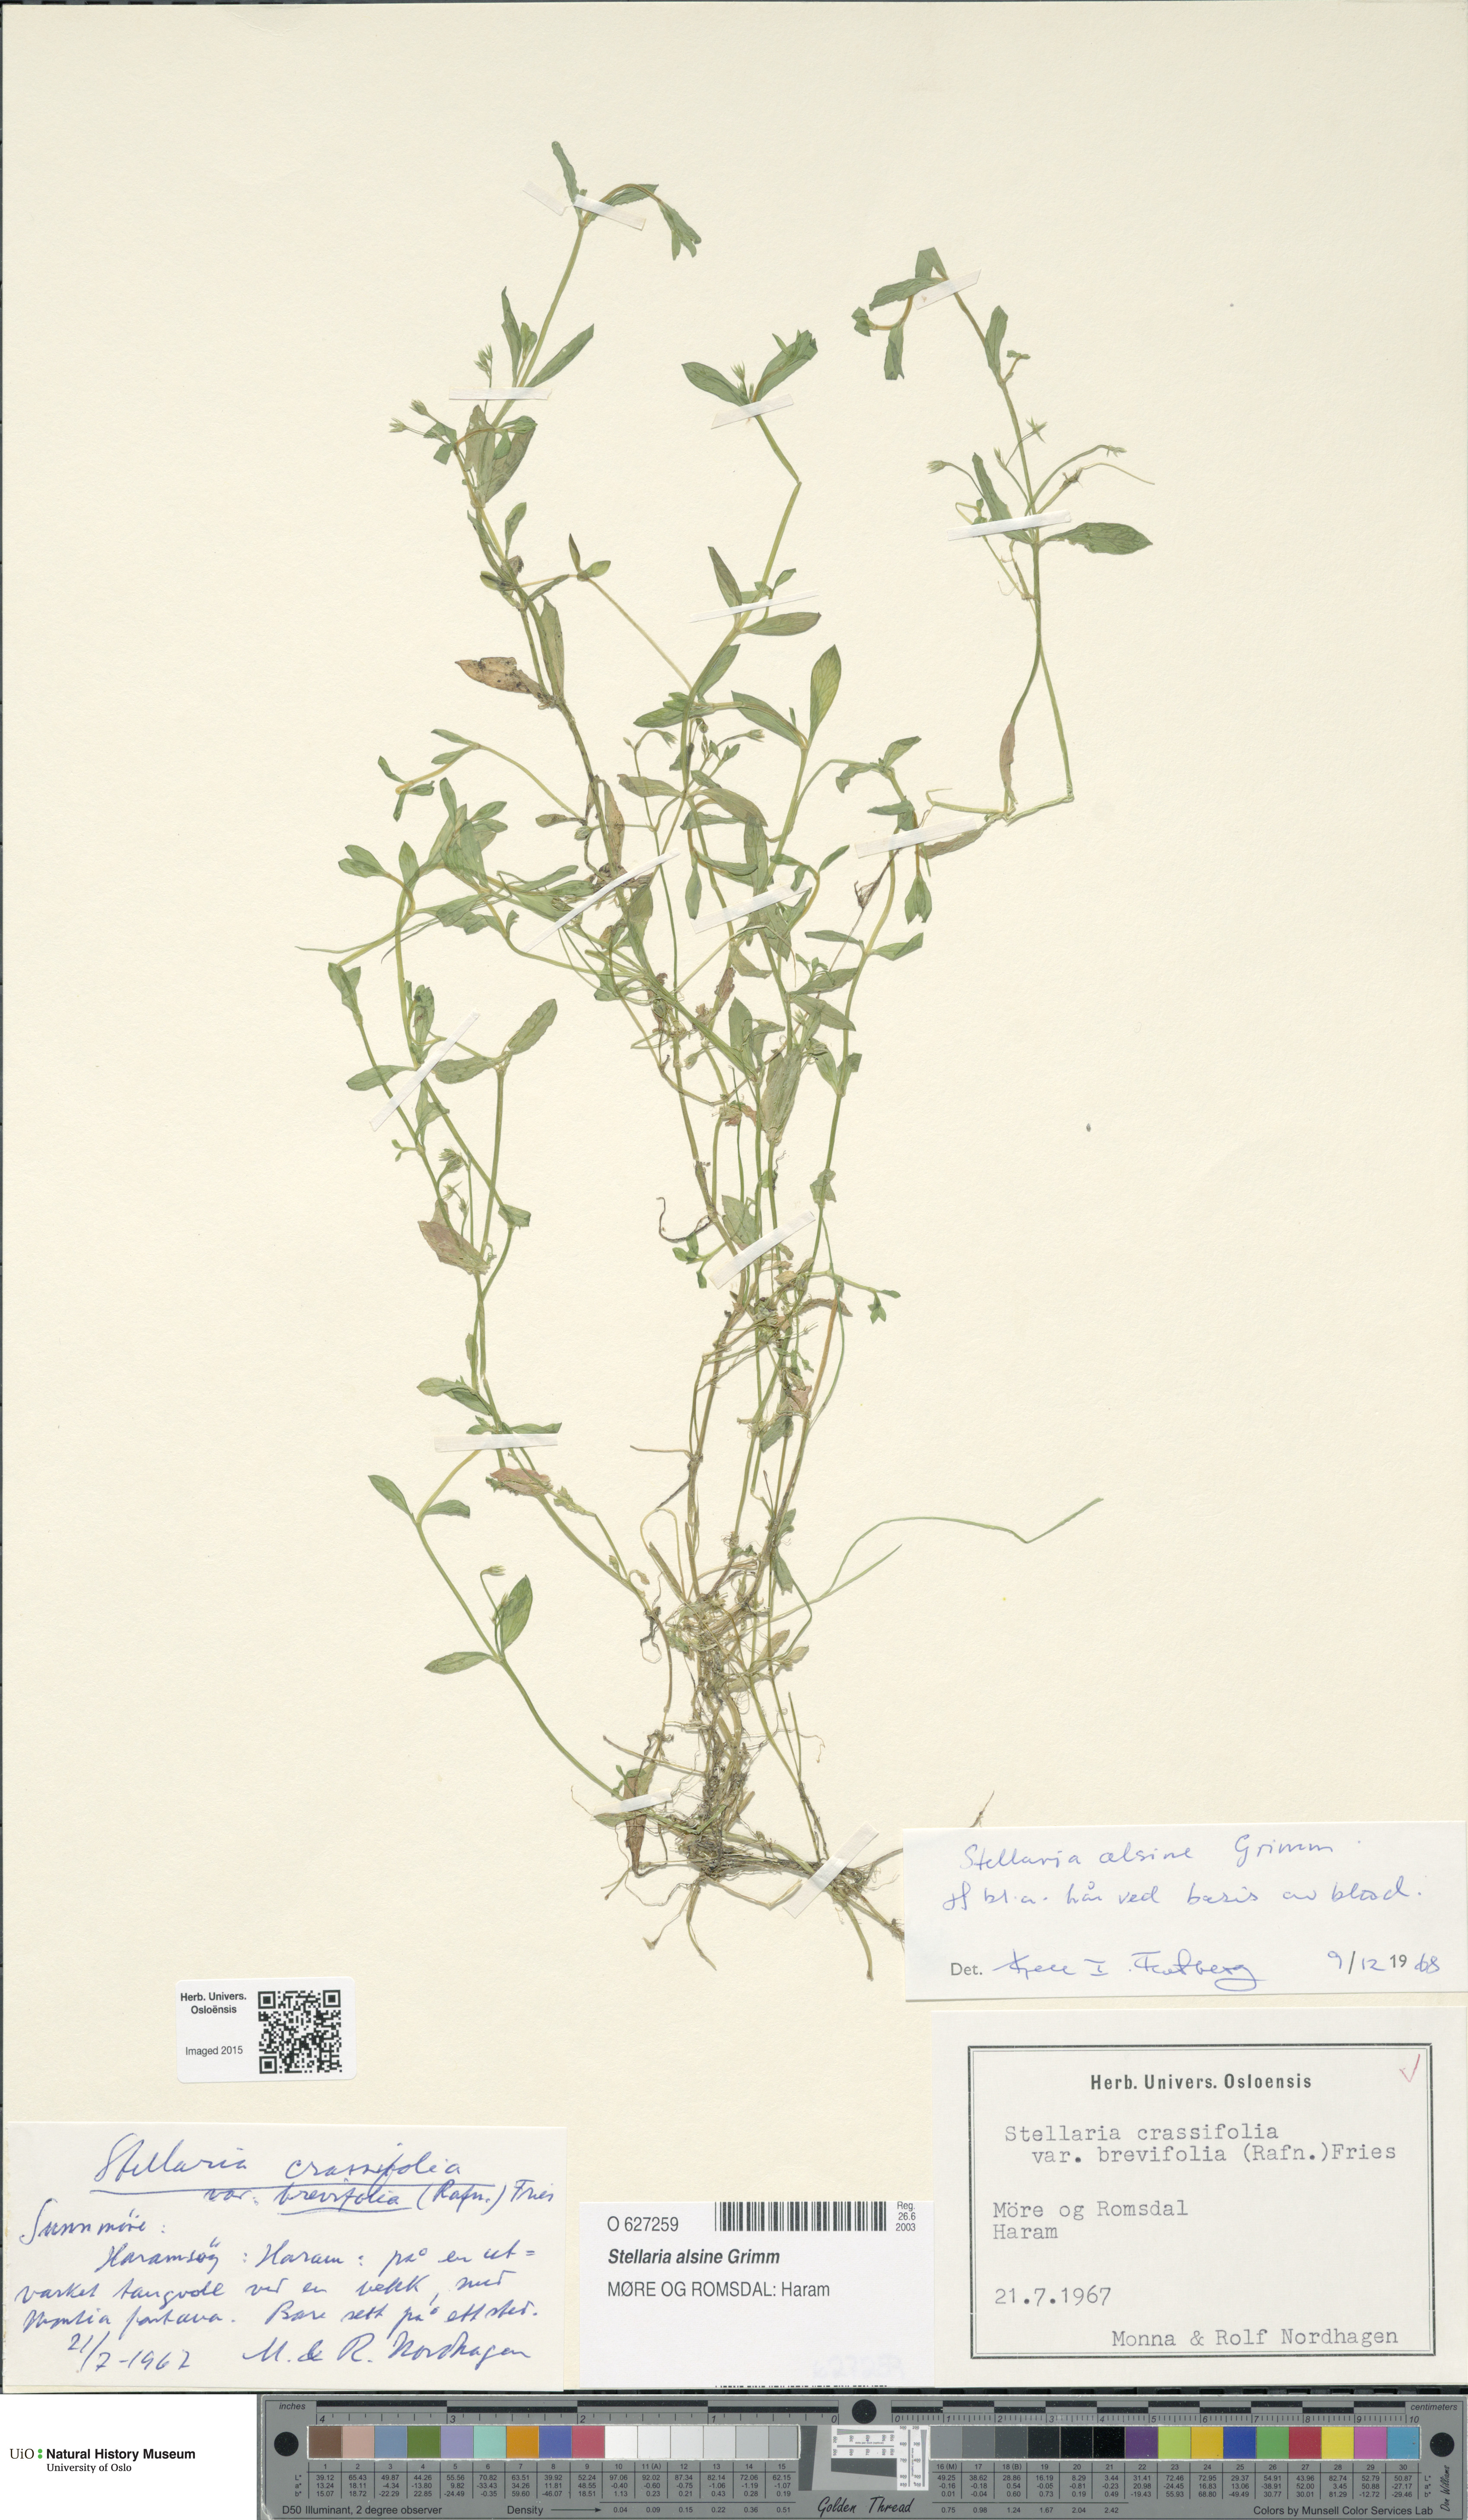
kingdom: Plantae
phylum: Tracheophyta
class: Magnoliopsida
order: Caryophyllales
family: Caryophyllaceae
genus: Stellaria
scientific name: Stellaria alsine
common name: Bog stitchwort
